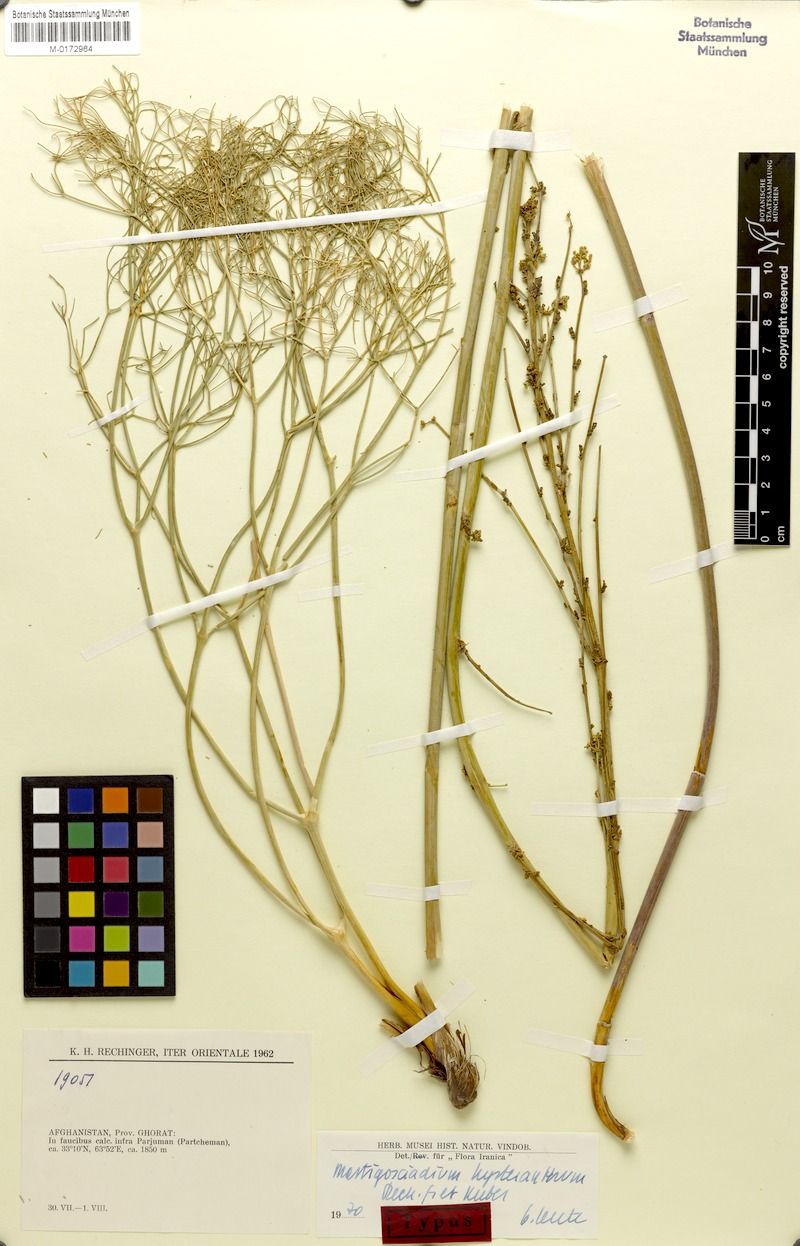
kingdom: Plantae
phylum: Tracheophyta
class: Magnoliopsida
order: Apiales
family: Apiaceae
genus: Mastigosciadium
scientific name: Mastigosciadium hysteranthum
